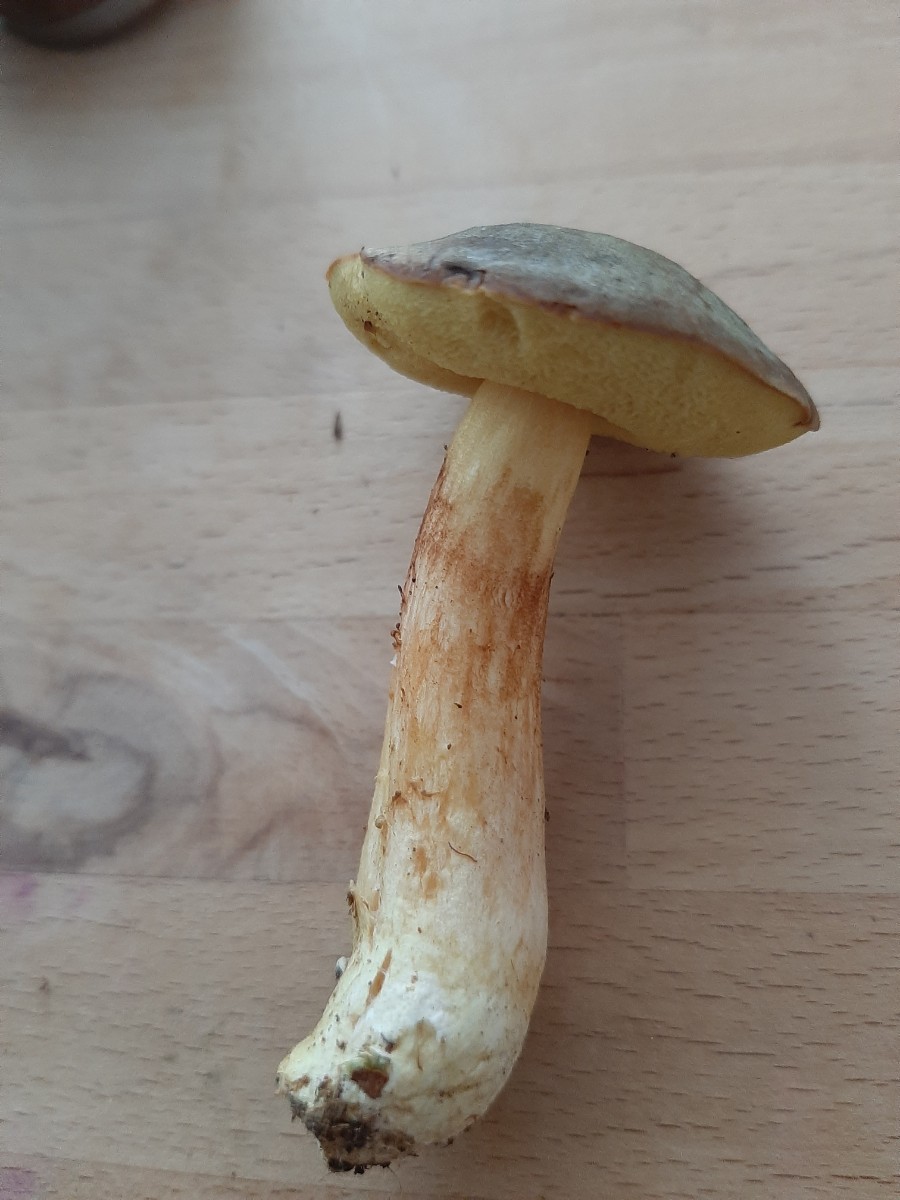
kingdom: Fungi
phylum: Basidiomycota
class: Agaricomycetes
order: Boletales
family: Boletaceae
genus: Xerocomus
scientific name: Xerocomus ferrugineus
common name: vaskeskinds-rørhat
